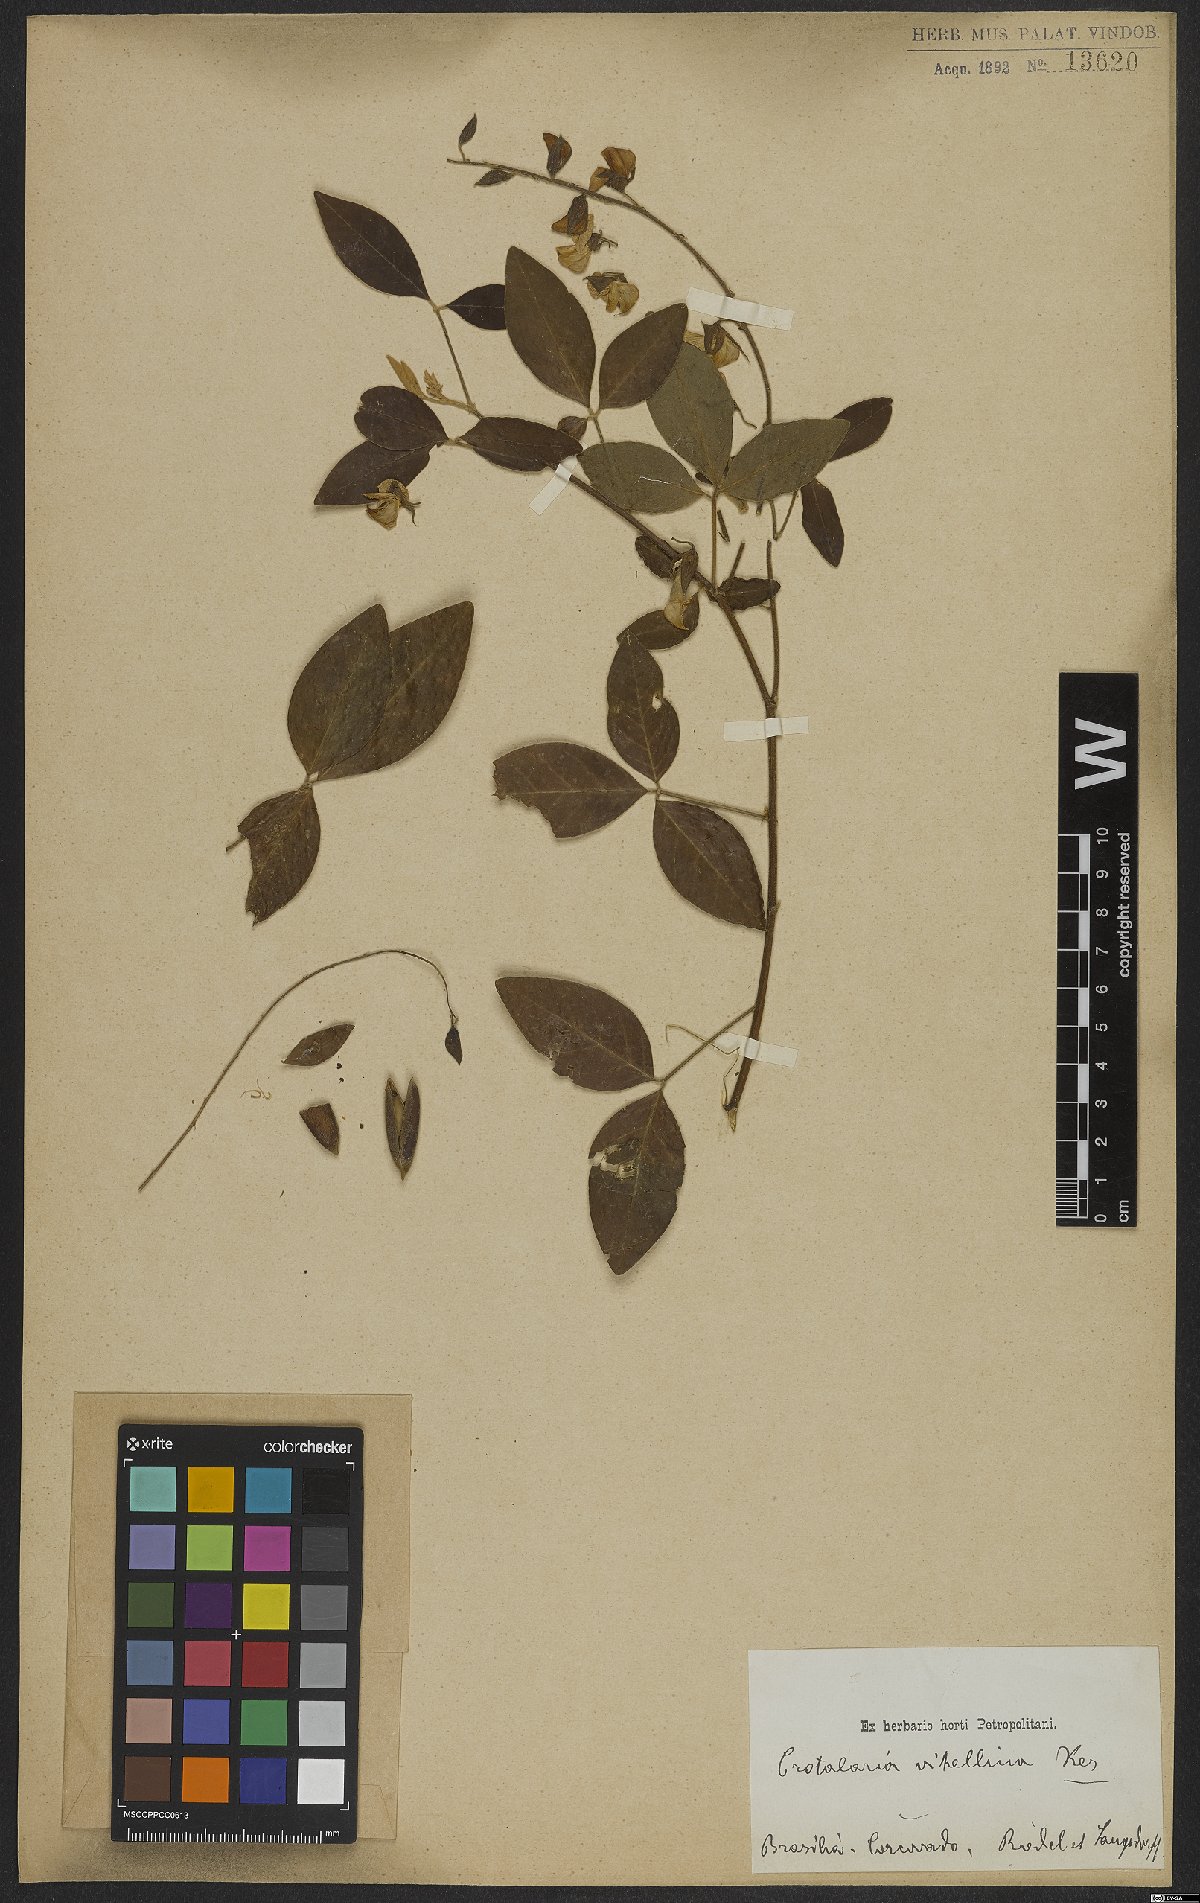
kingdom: Plantae
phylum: Tracheophyta
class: Magnoliopsida
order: Fabales
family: Fabaceae
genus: Crotalaria
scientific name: Crotalaria vitellina
